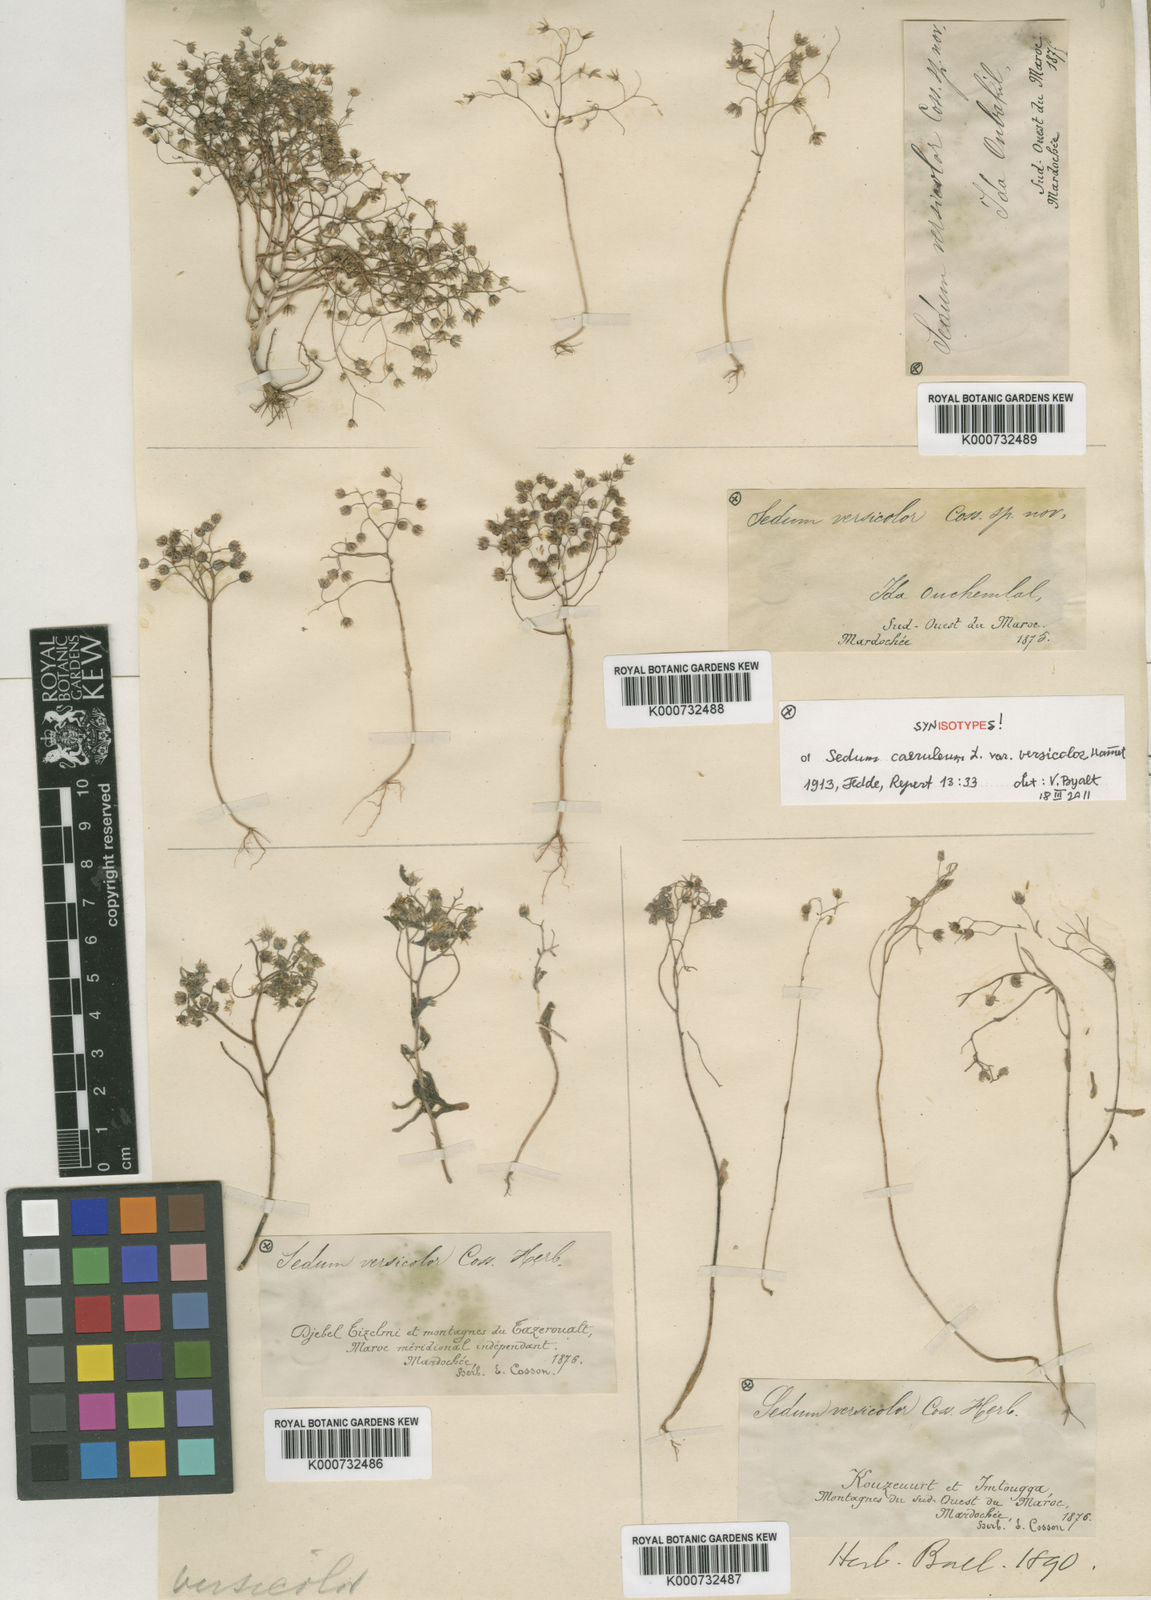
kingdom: Plantae
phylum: Tracheophyta
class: Magnoliopsida
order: Saxifragales
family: Crassulaceae
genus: Sedum
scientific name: Sedum
